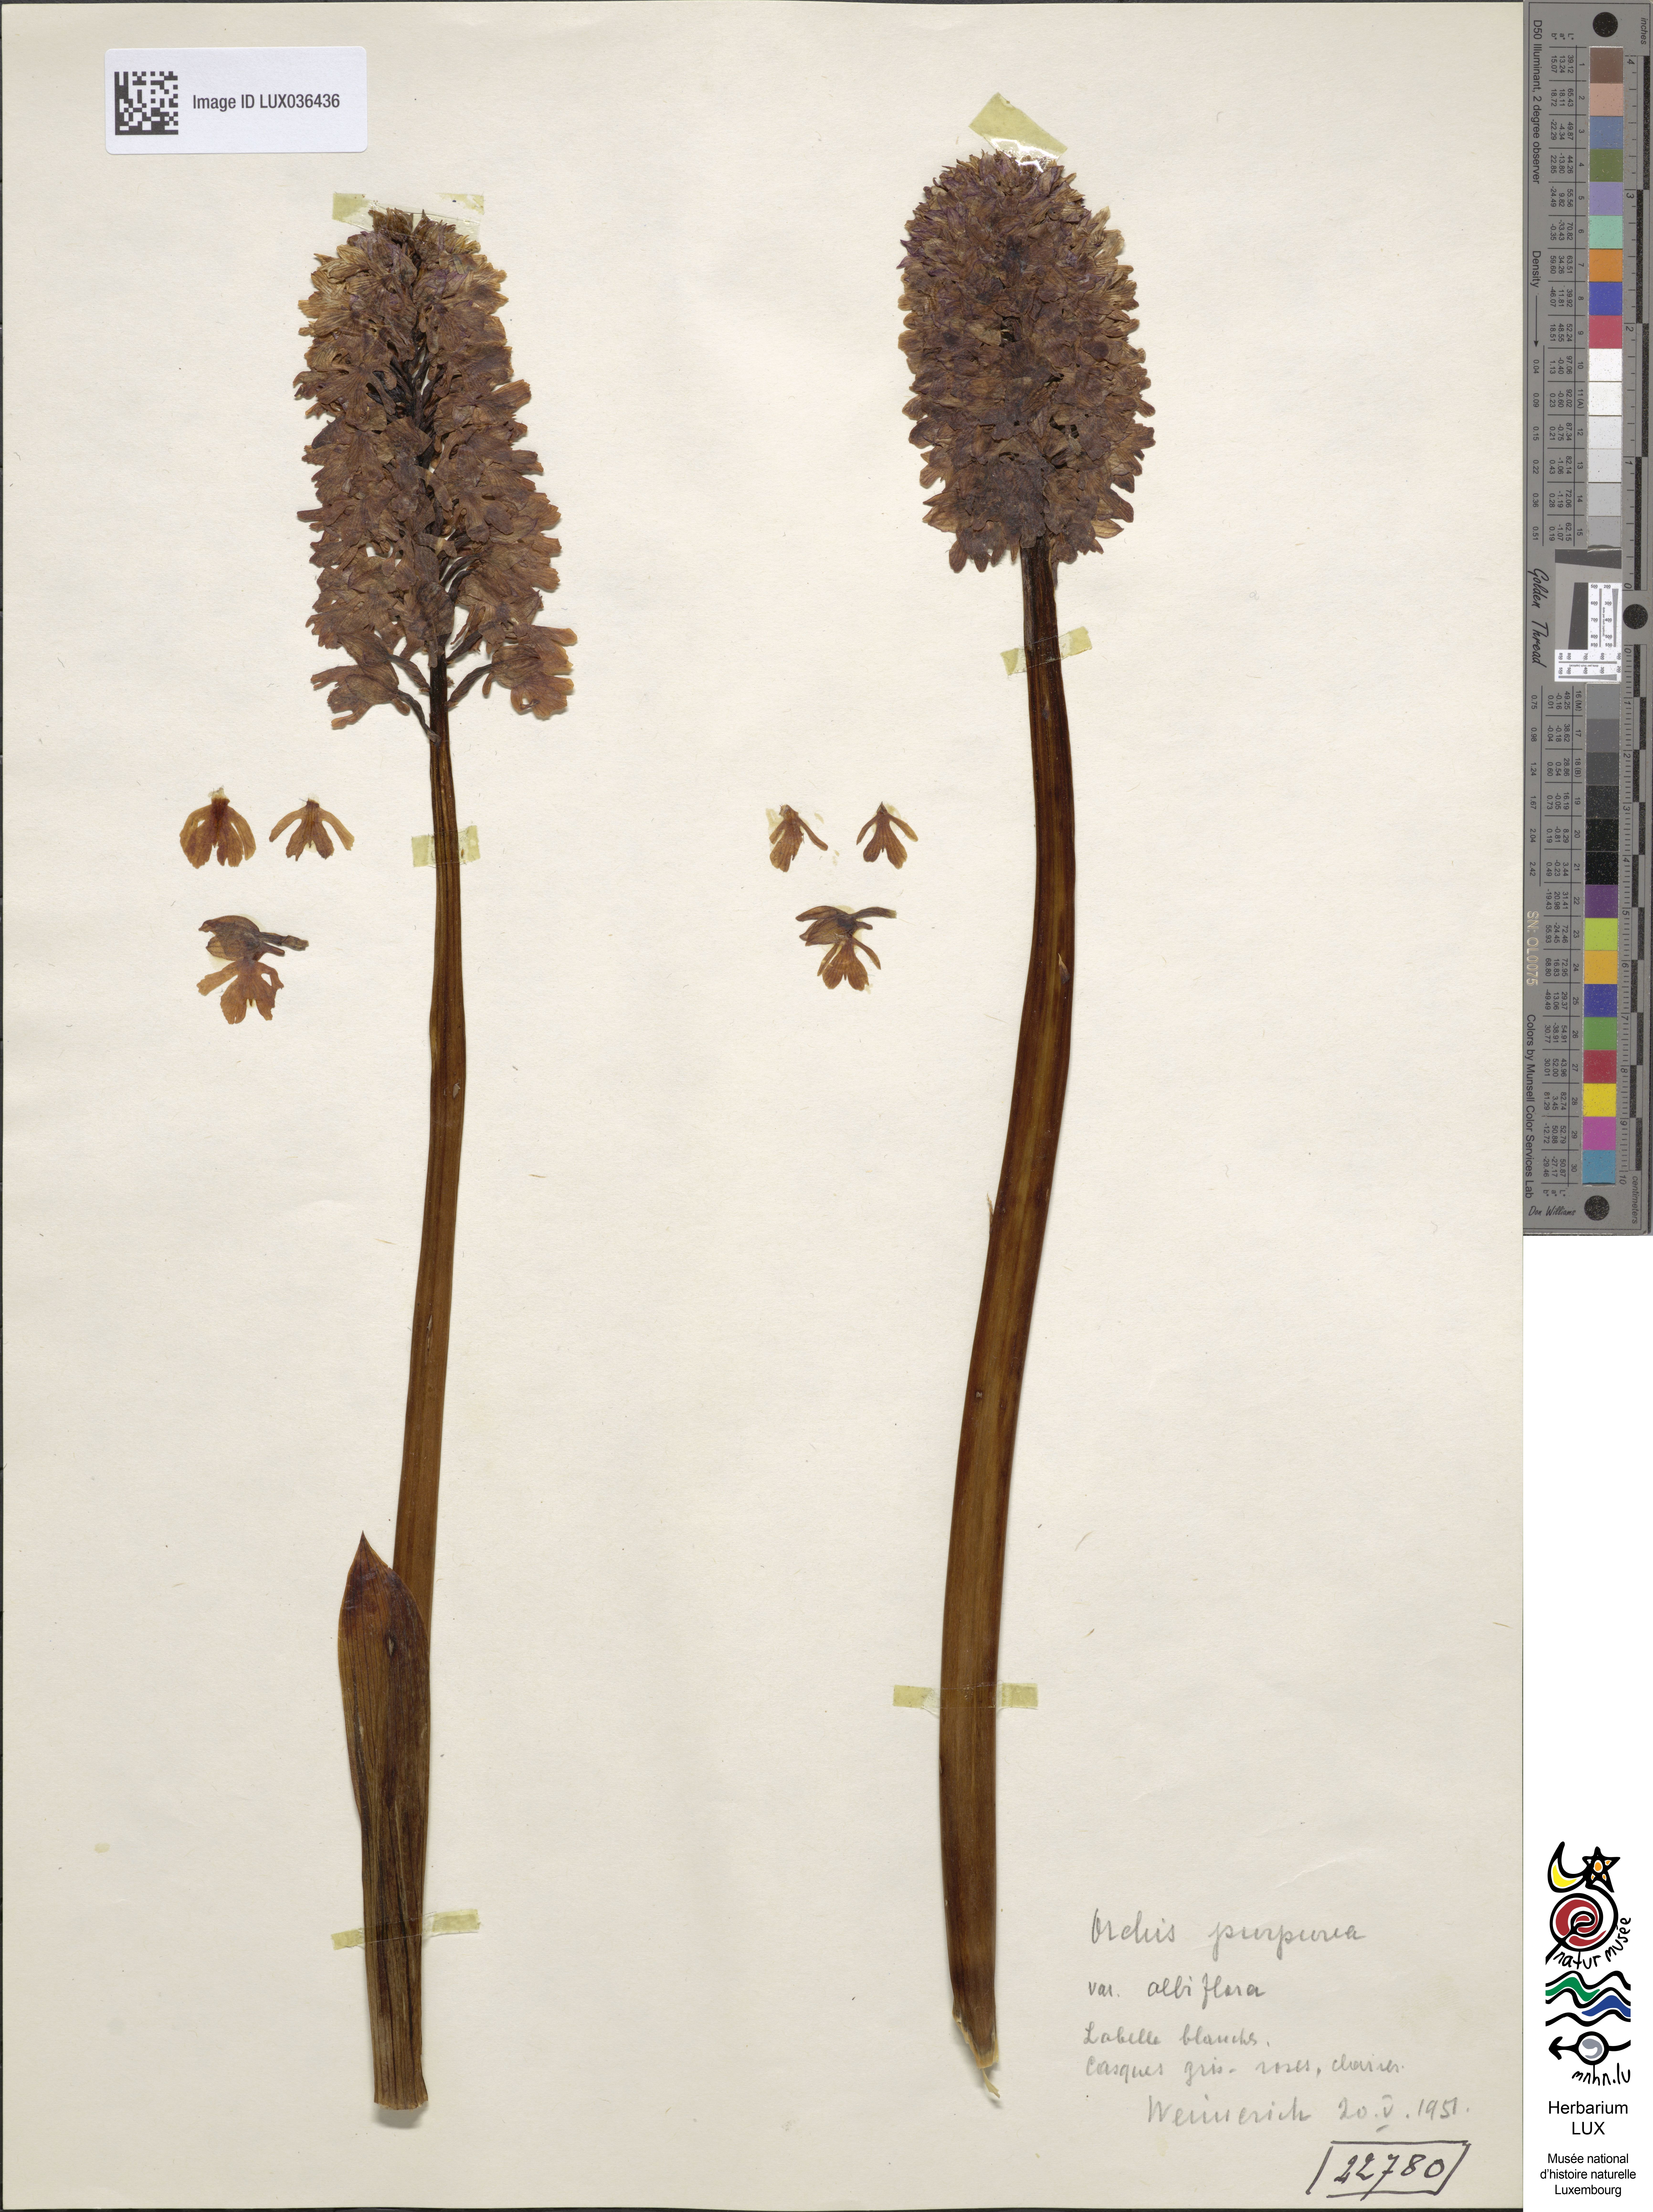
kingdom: Plantae
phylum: Tracheophyta
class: Liliopsida
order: Asparagales
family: Orchidaceae
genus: Orchis
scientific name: Orchis purpurea
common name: Lady orchid
